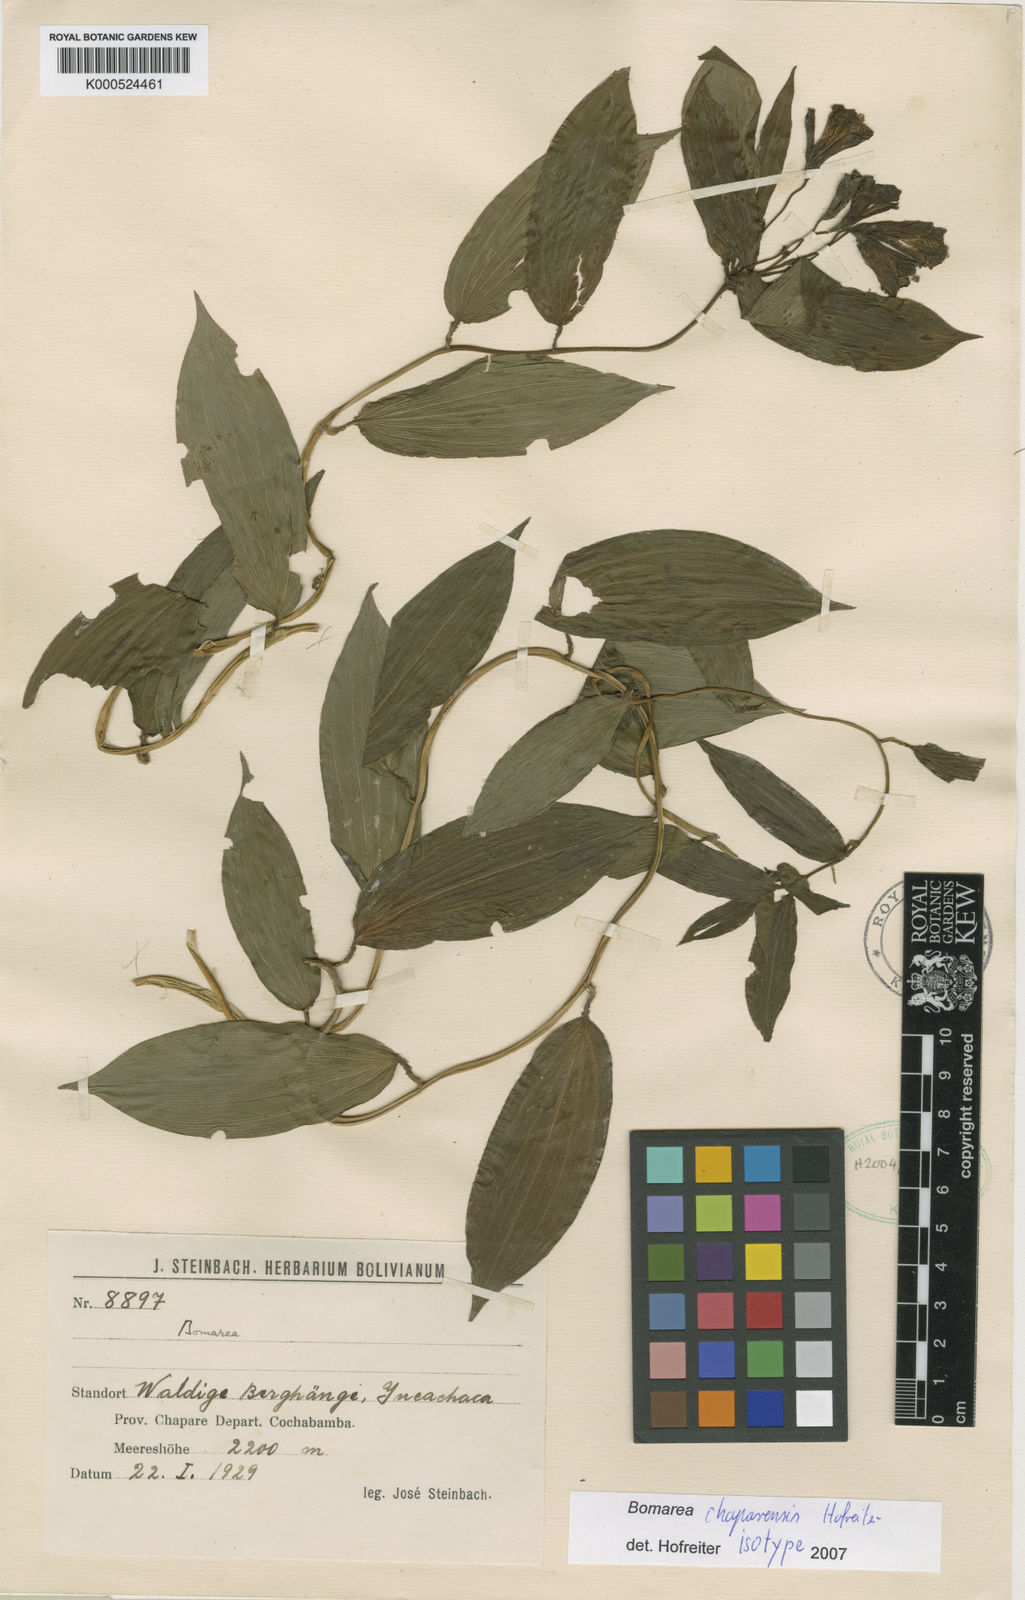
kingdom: Plantae
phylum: Tracheophyta
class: Liliopsida
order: Liliales
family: Alstroemeriaceae
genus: Bomarea
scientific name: Bomarea chaparensis
